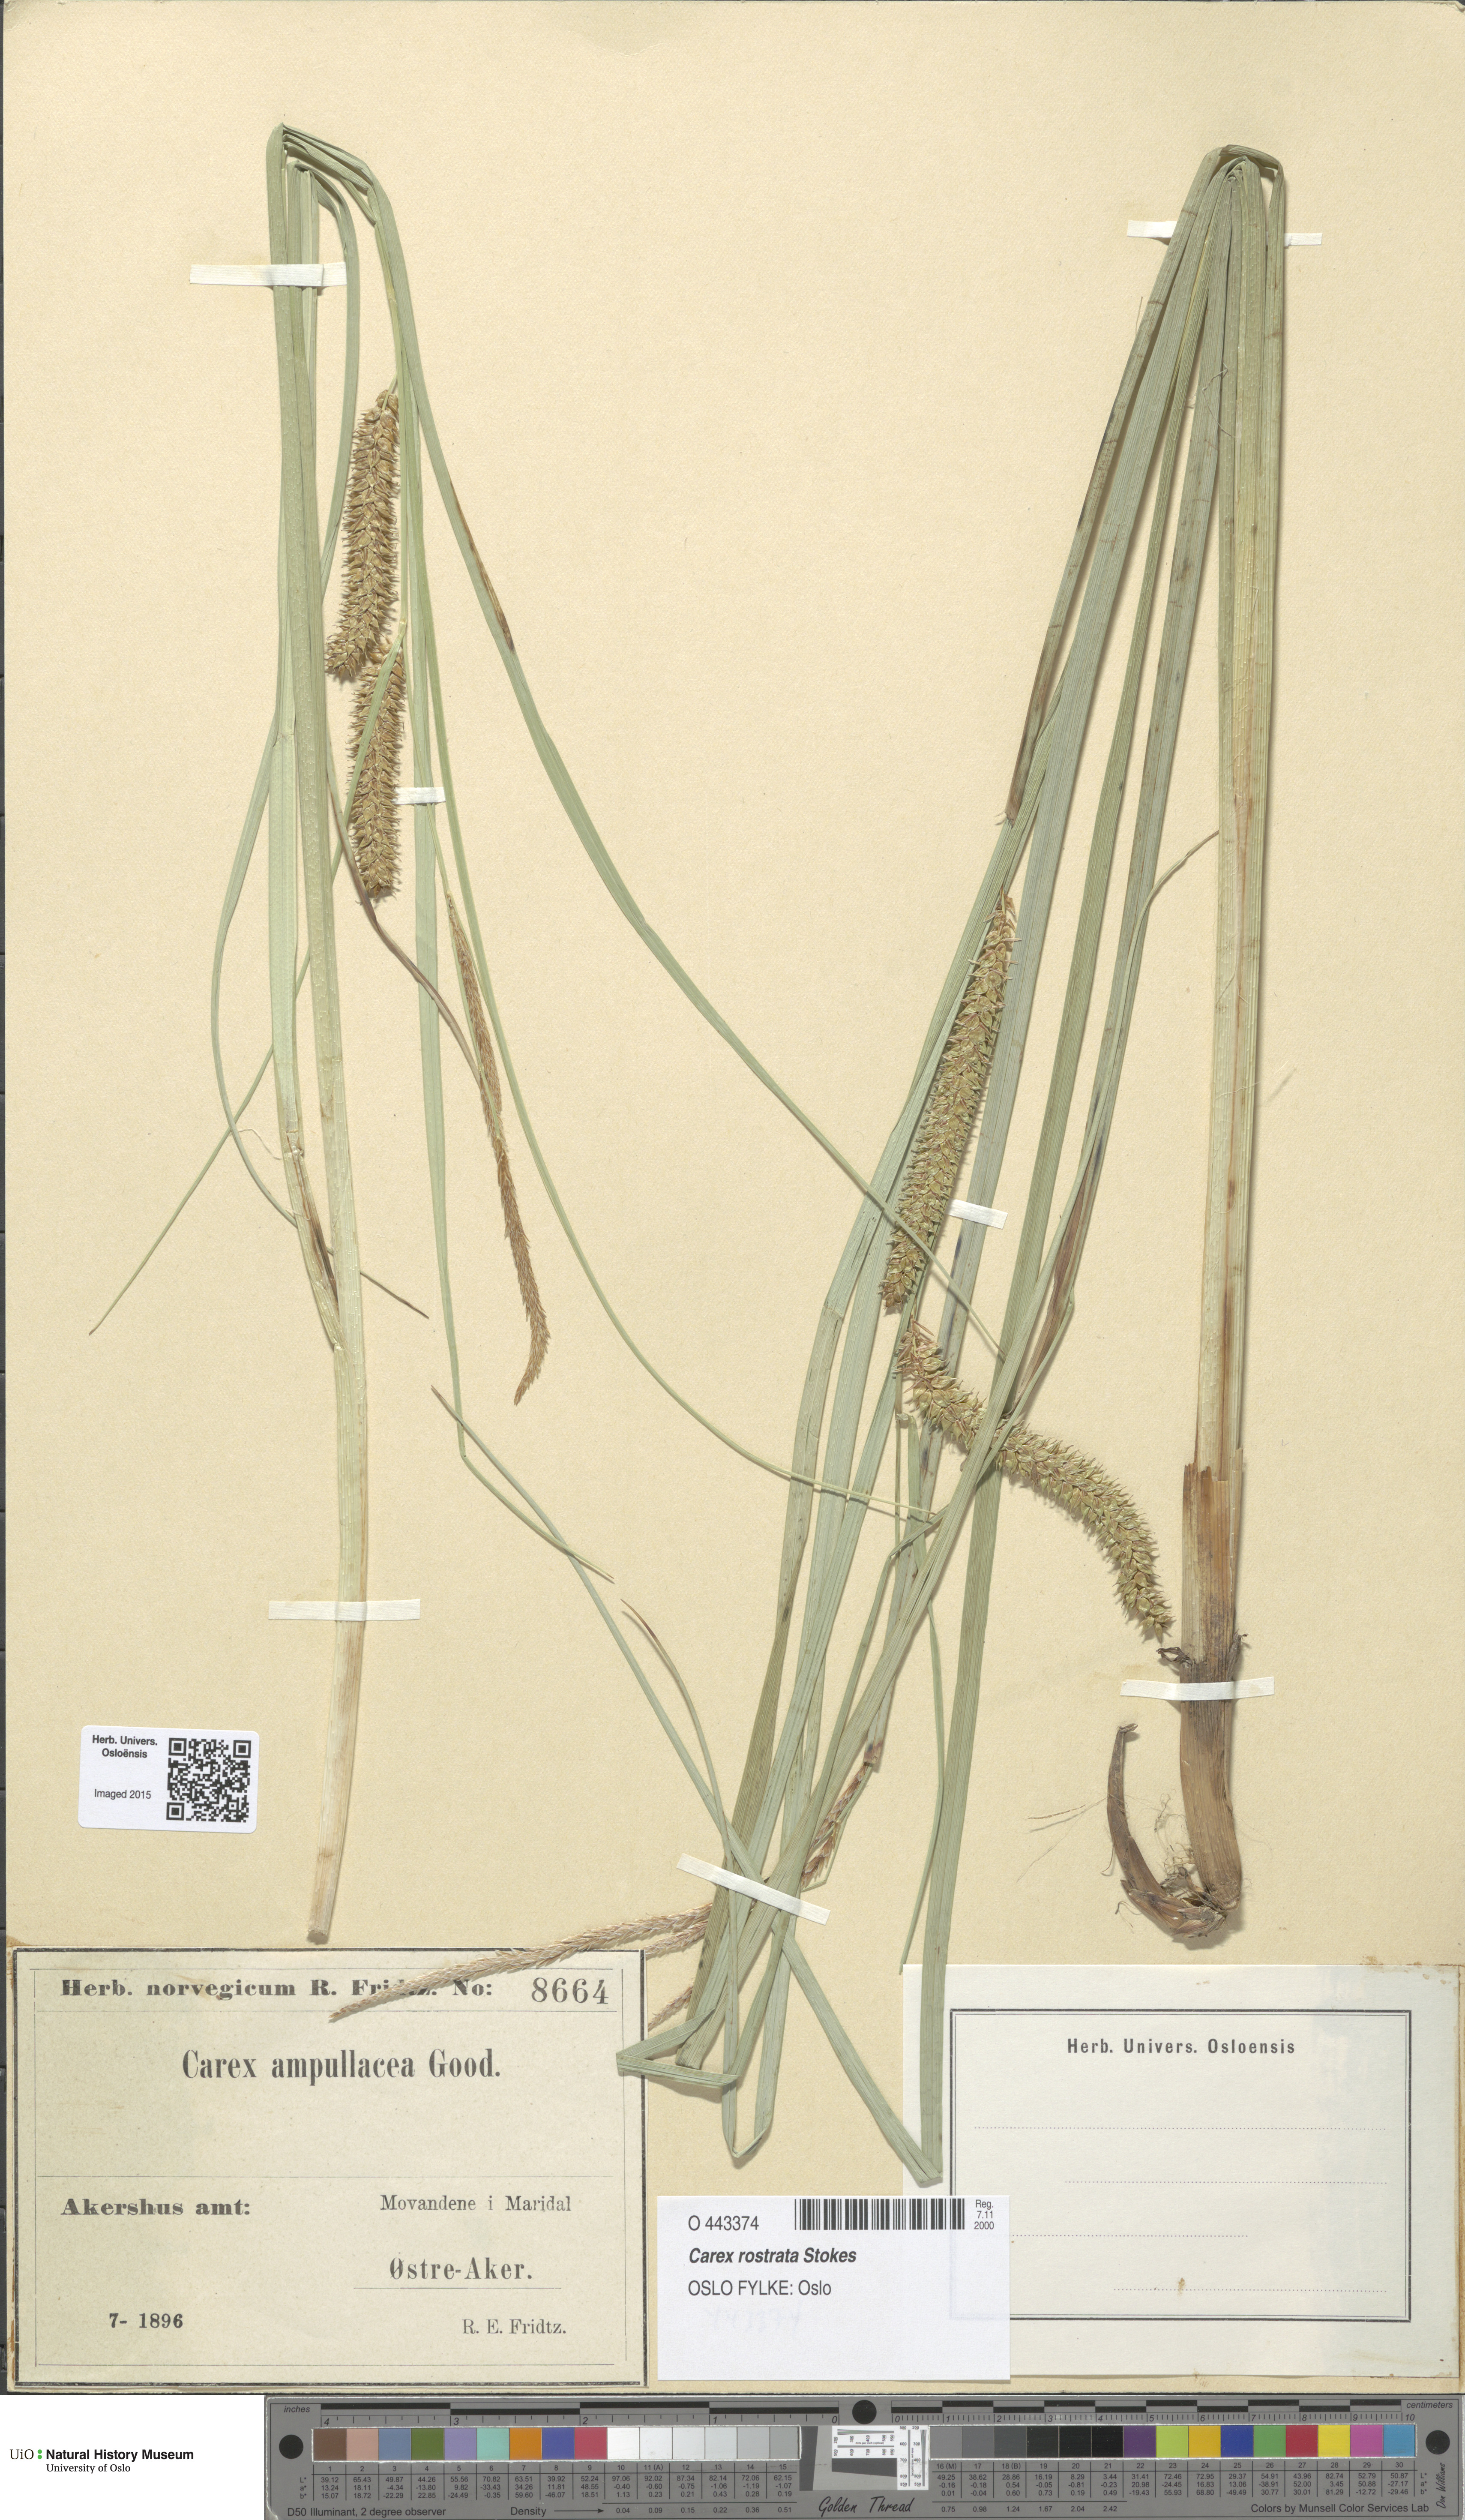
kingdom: Plantae
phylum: Tracheophyta
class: Liliopsida
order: Poales
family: Cyperaceae
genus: Carex
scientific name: Carex rostrata
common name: Bottle sedge
